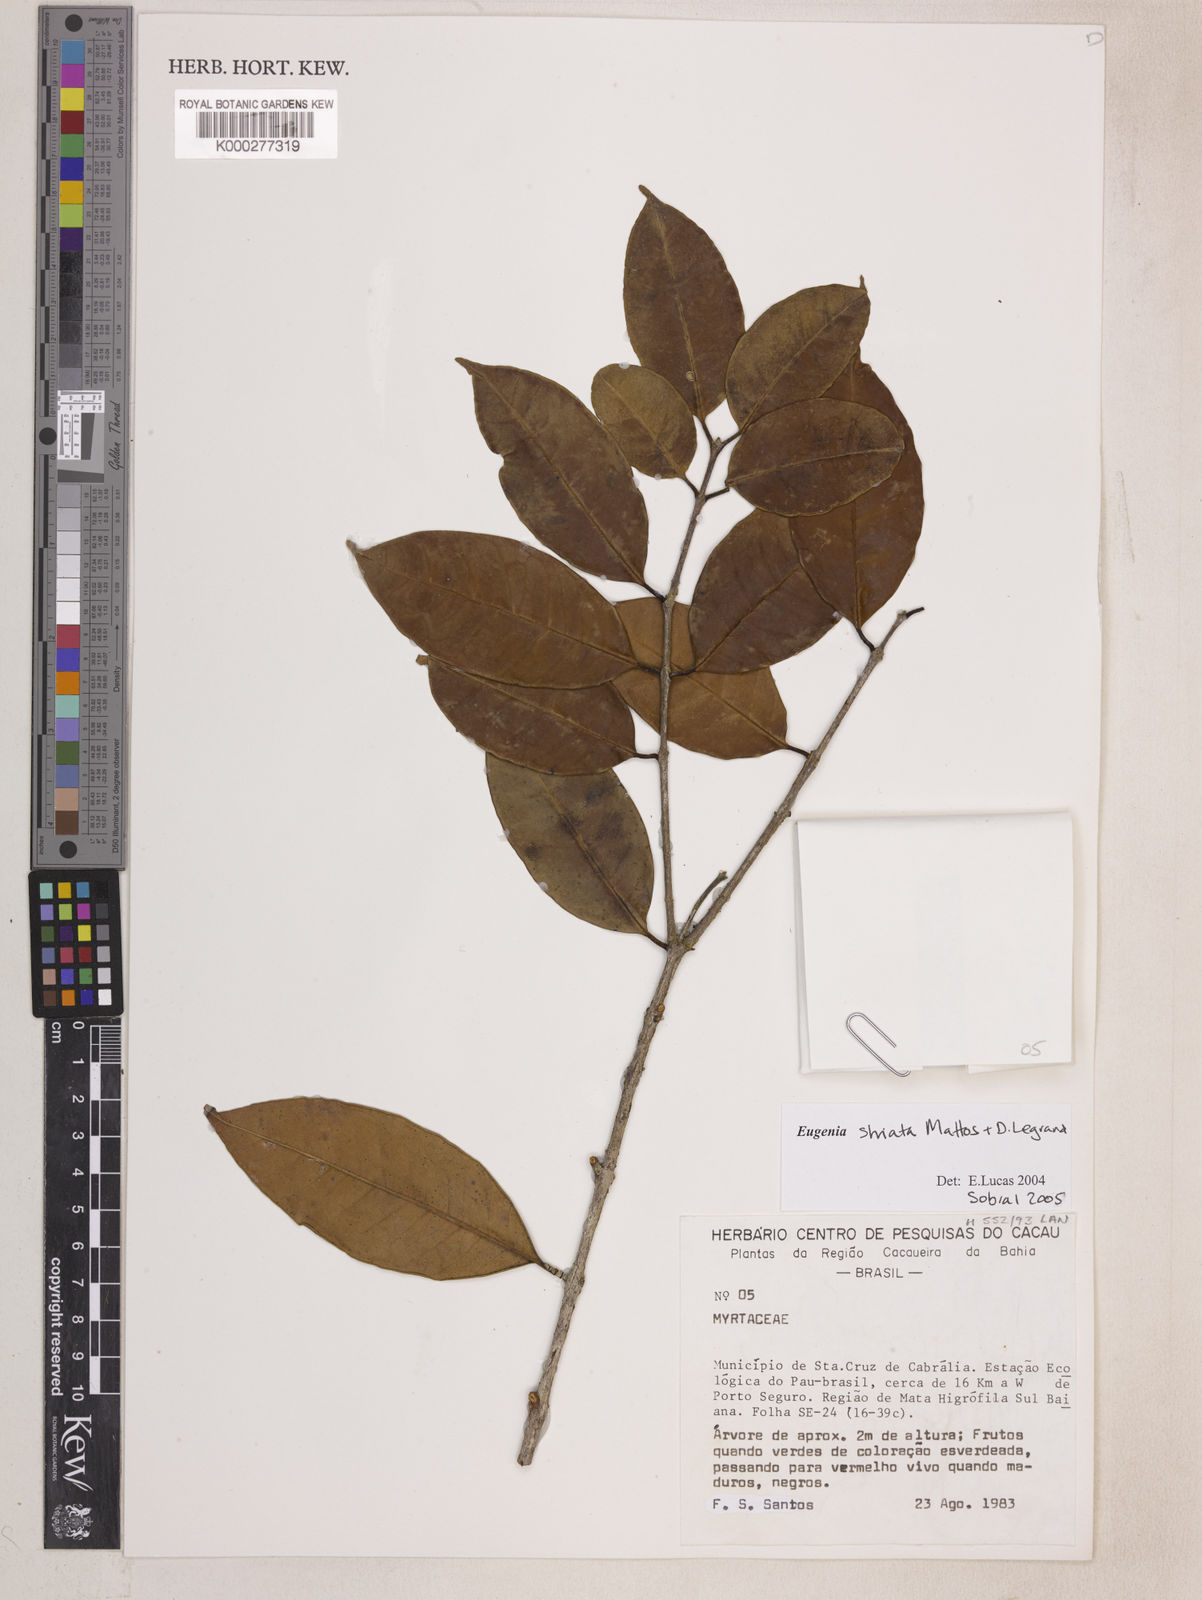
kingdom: Plantae
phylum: Tracheophyta
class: Magnoliopsida
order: Myrtales
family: Myrtaceae
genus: Eugenia
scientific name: Eugenia oblongata
